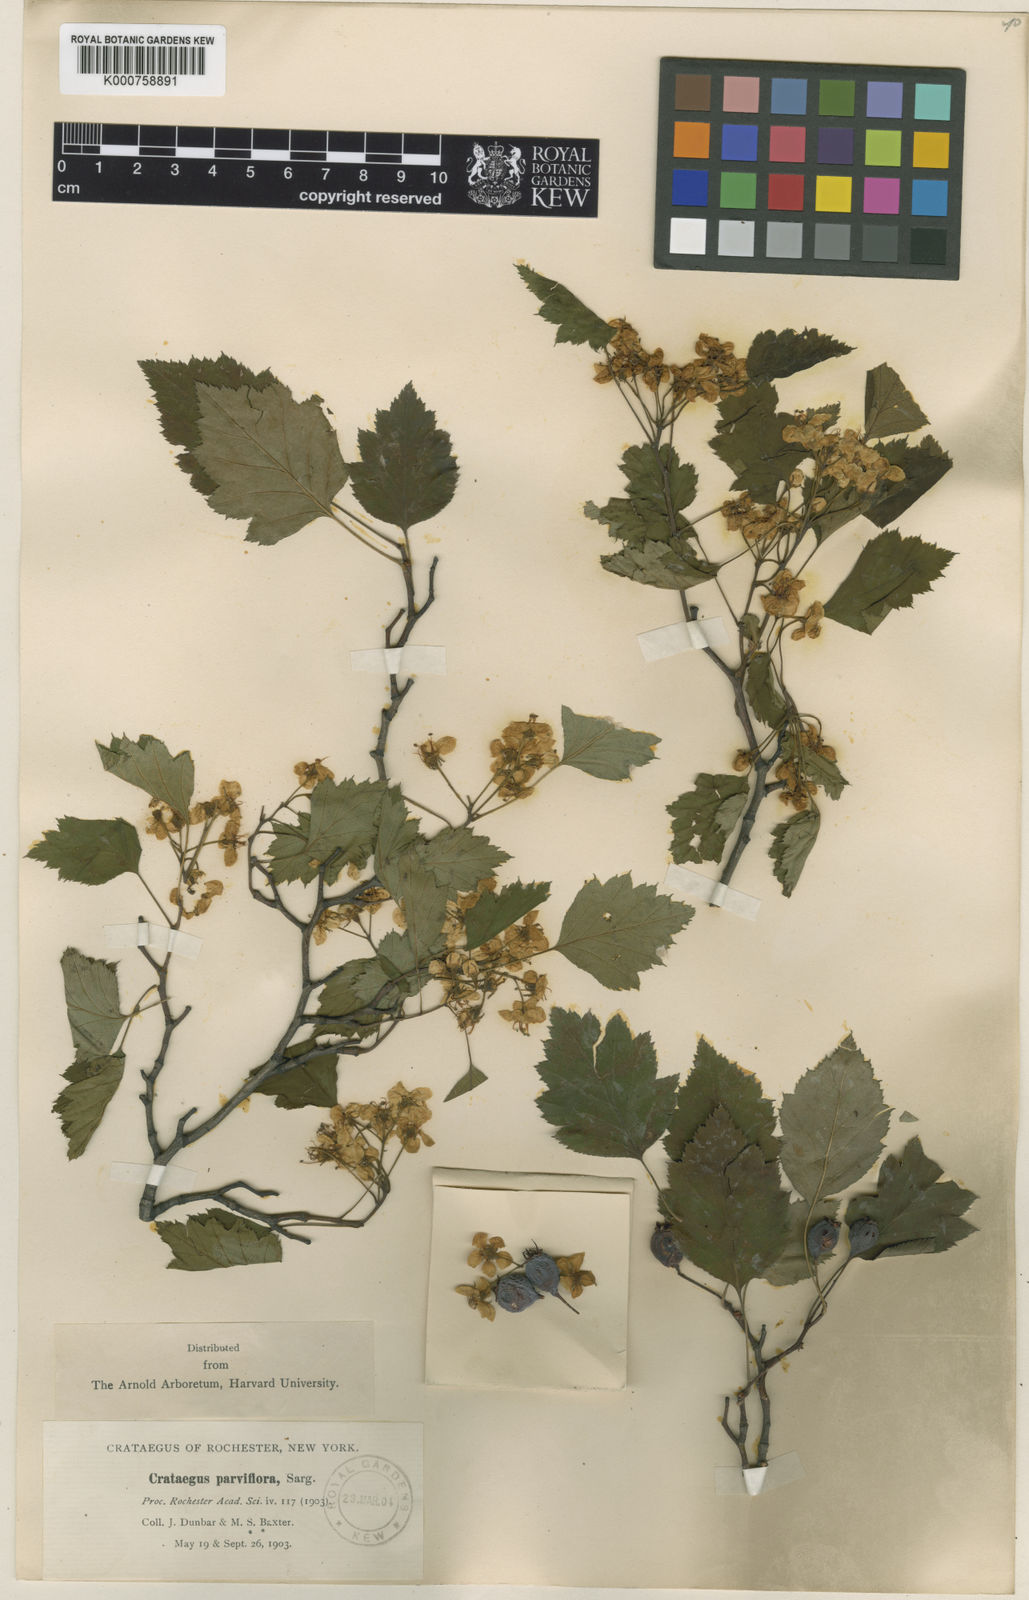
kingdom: Plantae
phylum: Tracheophyta
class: Magnoliopsida
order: Rosales
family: Rosaceae
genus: Crataegus
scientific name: Crataegus
